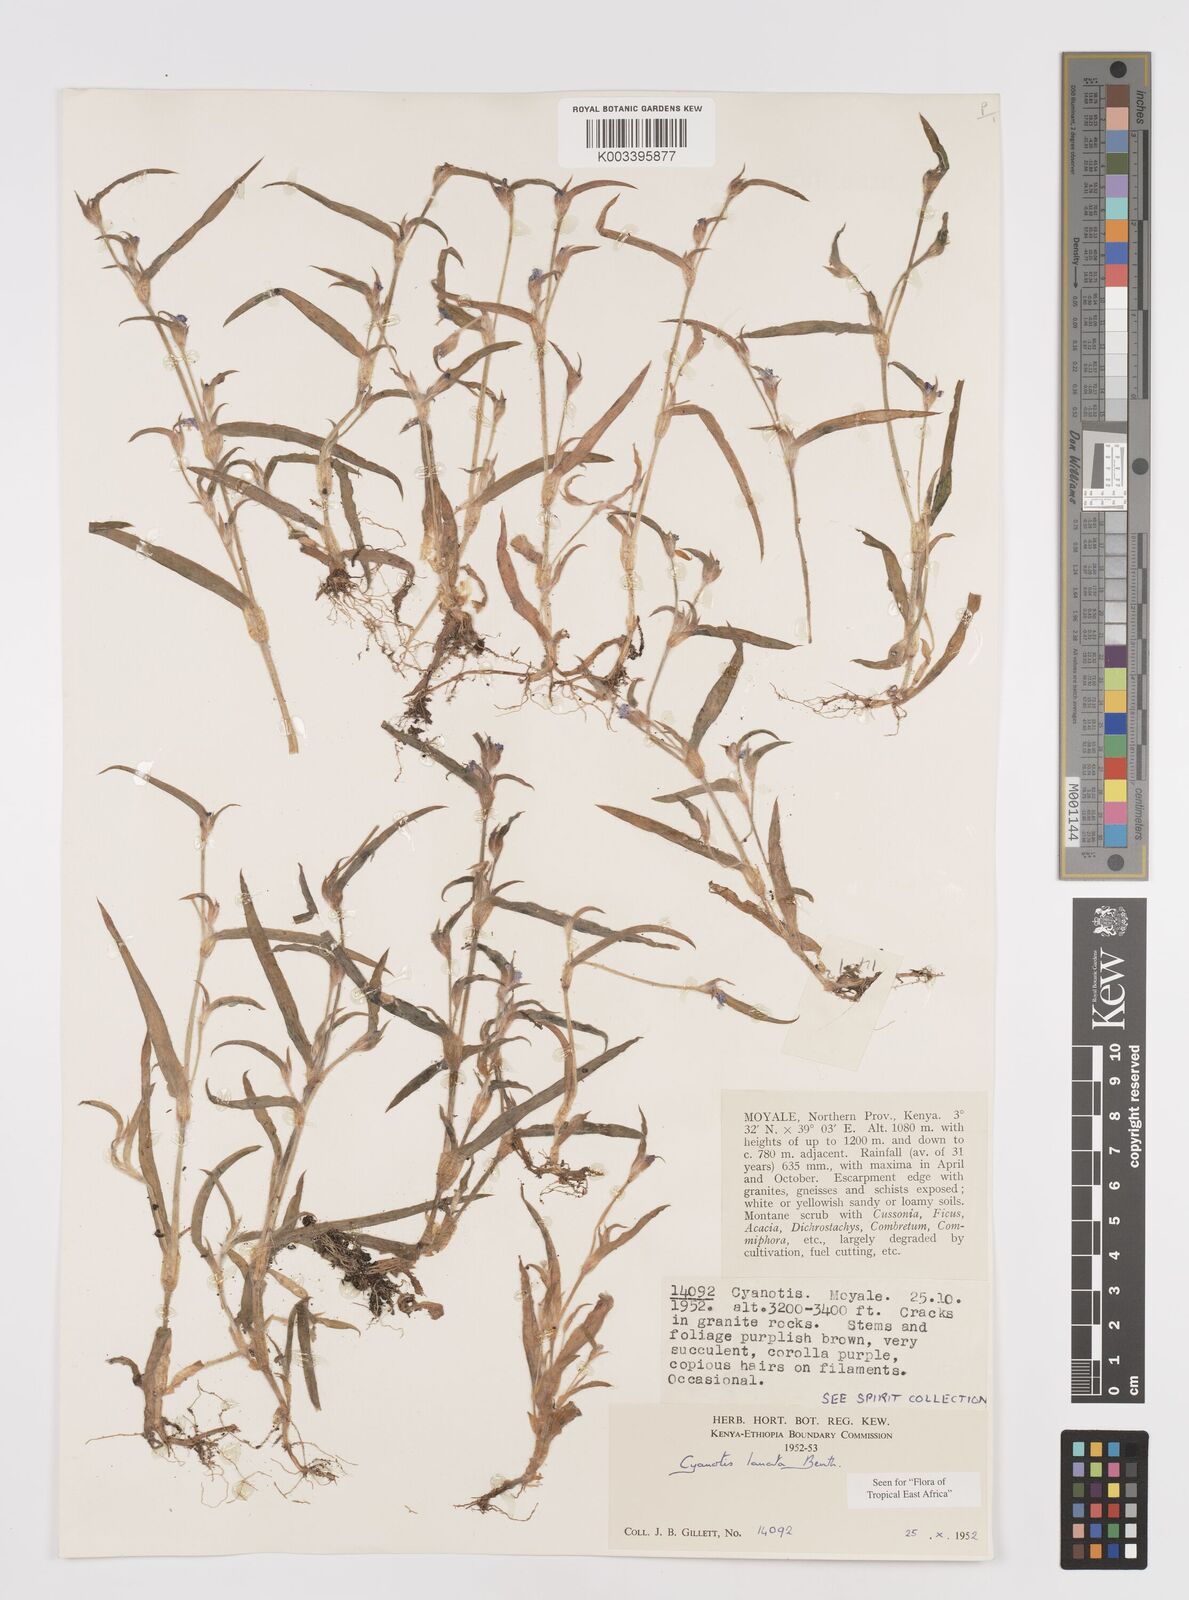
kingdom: Plantae
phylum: Tracheophyta
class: Liliopsida
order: Commelinales
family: Commelinaceae
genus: Cyanotis
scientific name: Cyanotis lanata
